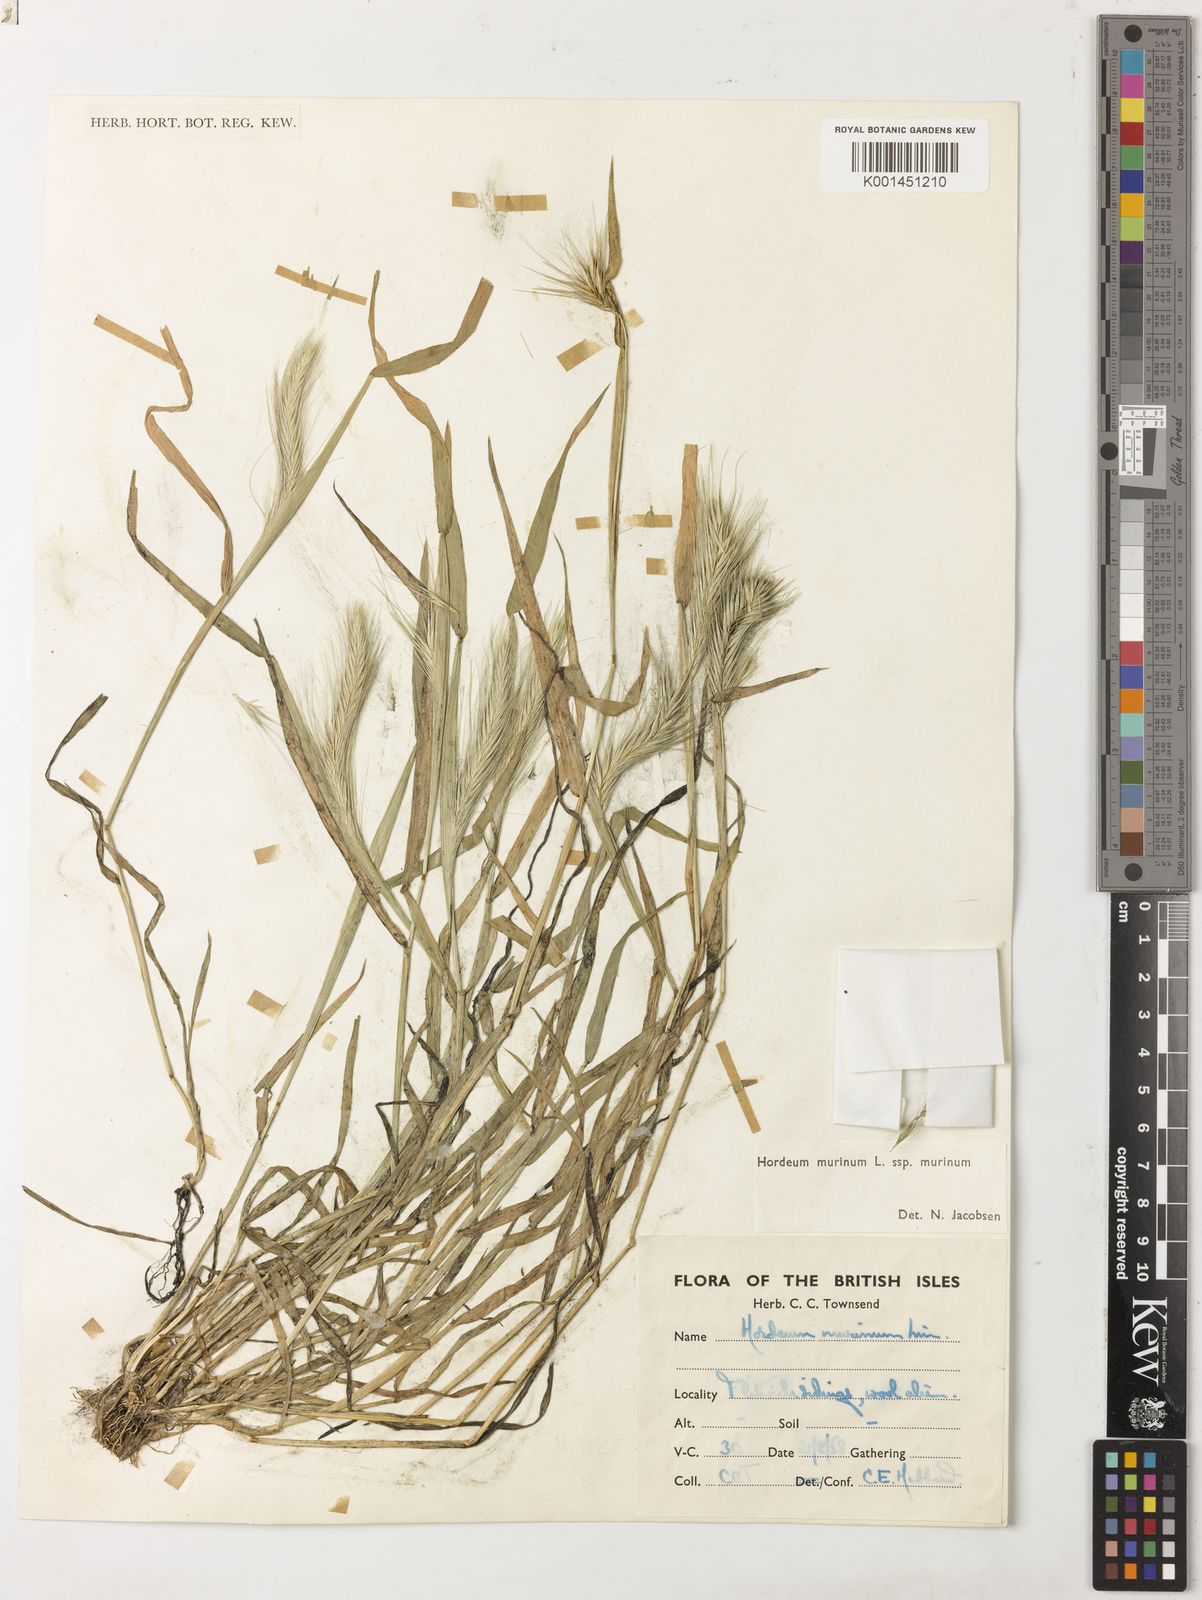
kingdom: Plantae
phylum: Tracheophyta
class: Liliopsida
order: Poales
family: Poaceae
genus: Hordeum
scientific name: Hordeum murinum
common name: Wall barley
